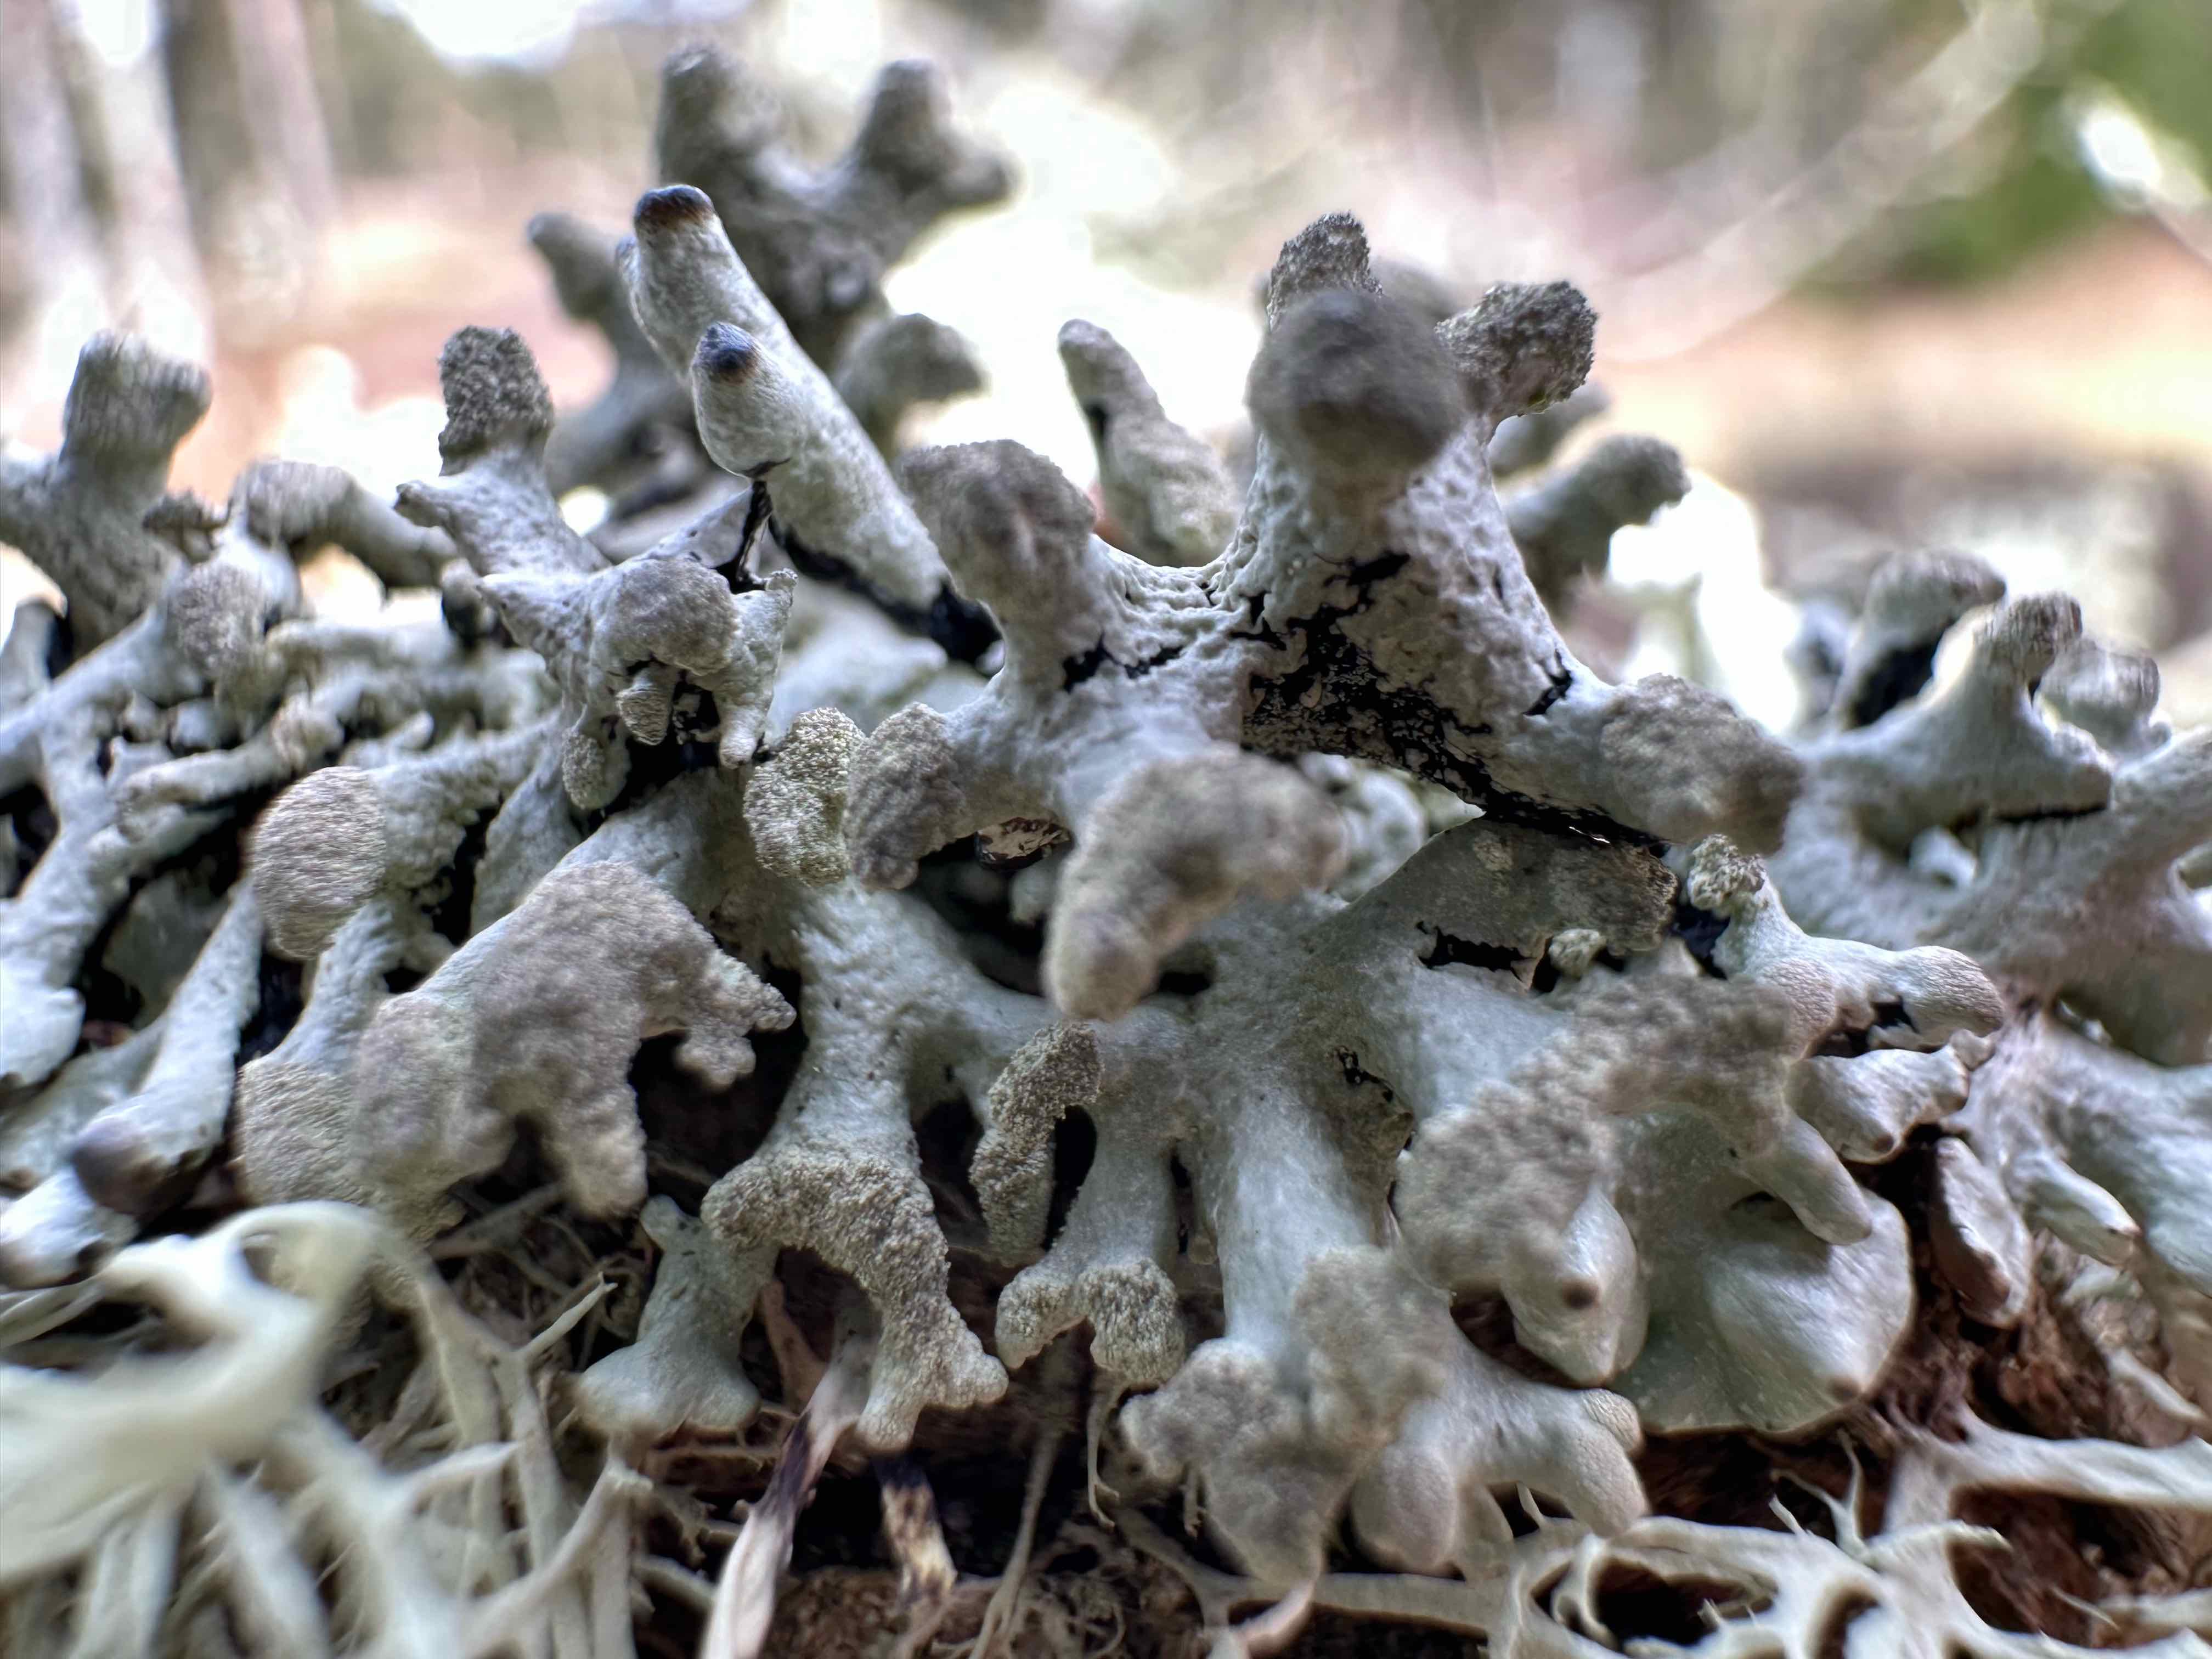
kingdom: Fungi
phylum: Ascomycota
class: Lecanoromycetes
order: Lecanorales
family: Parmeliaceae
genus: Hypogymnia
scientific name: Hypogymnia tubulosa
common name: finger-kvistlav
